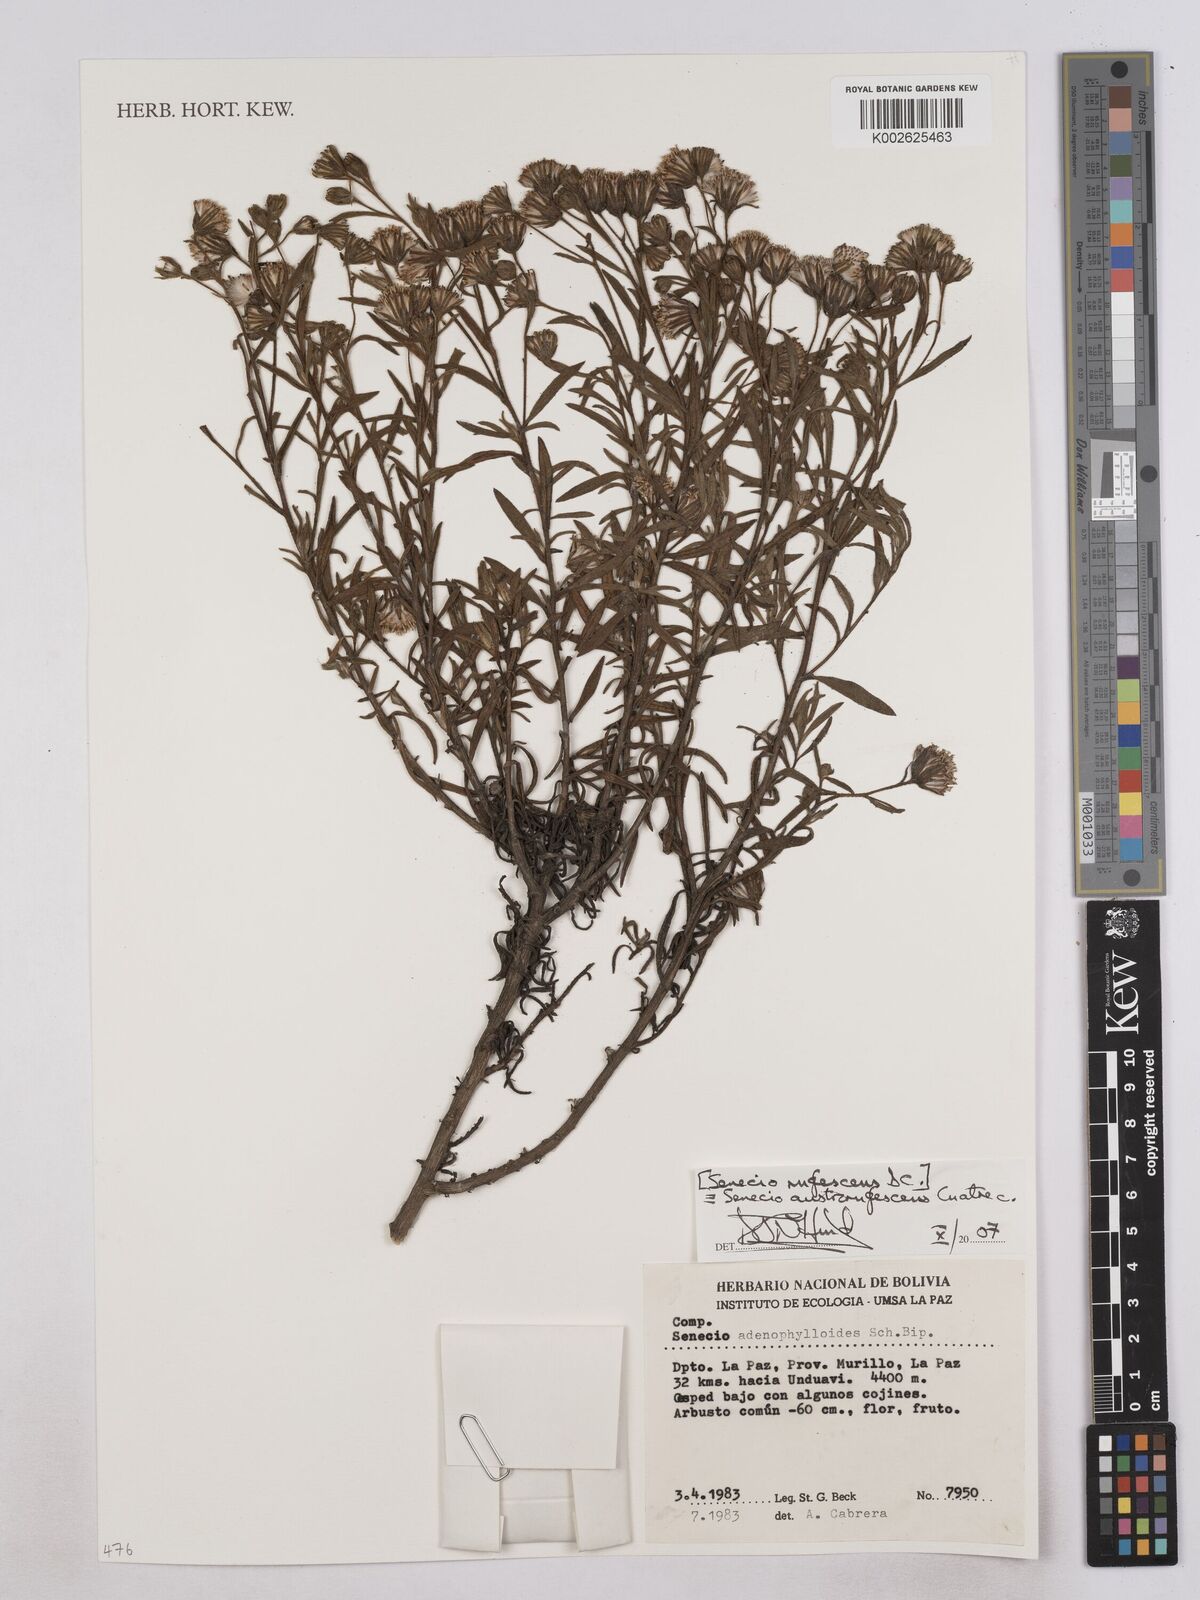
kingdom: Plantae
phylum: Tracheophyta
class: Magnoliopsida
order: Asterales
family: Asteraceae
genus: Senecio
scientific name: Senecio rufescens
